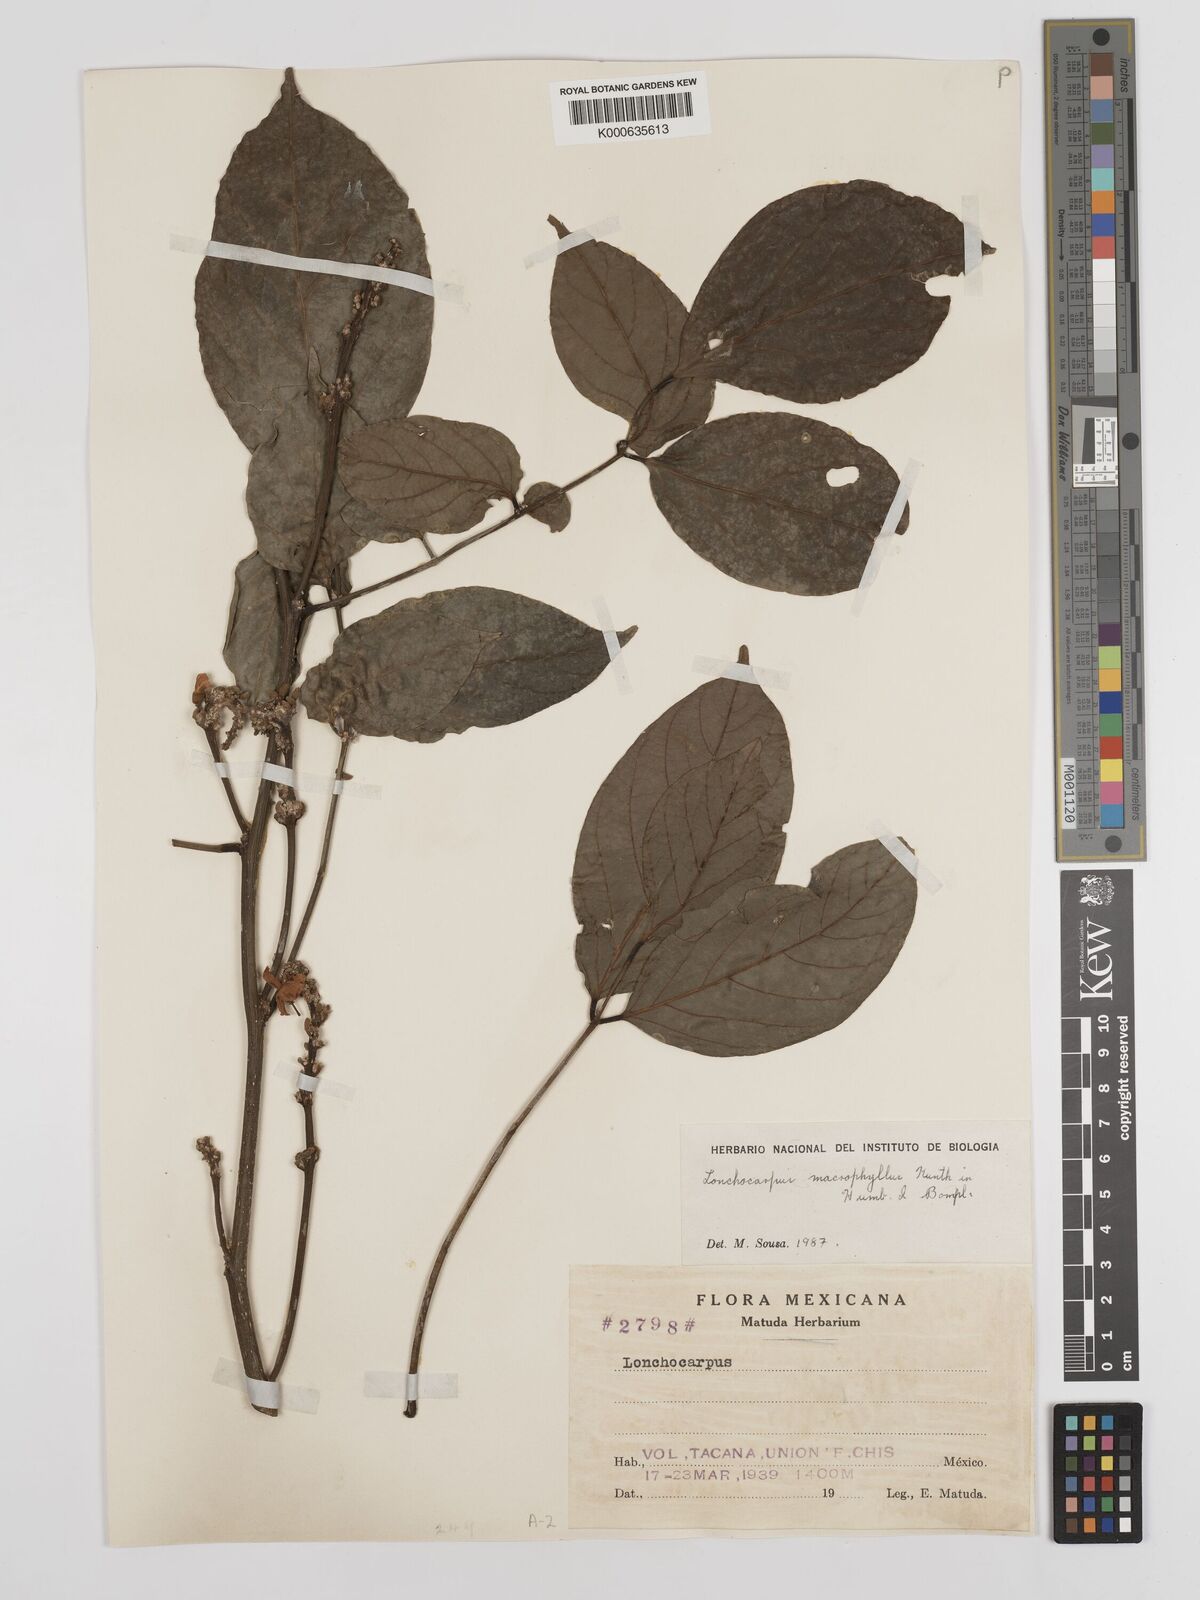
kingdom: Plantae
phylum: Tracheophyta
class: Magnoliopsida
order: Fabales
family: Fabaceae
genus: Lonchocarpus
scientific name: Lonchocarpus macrophyllus
